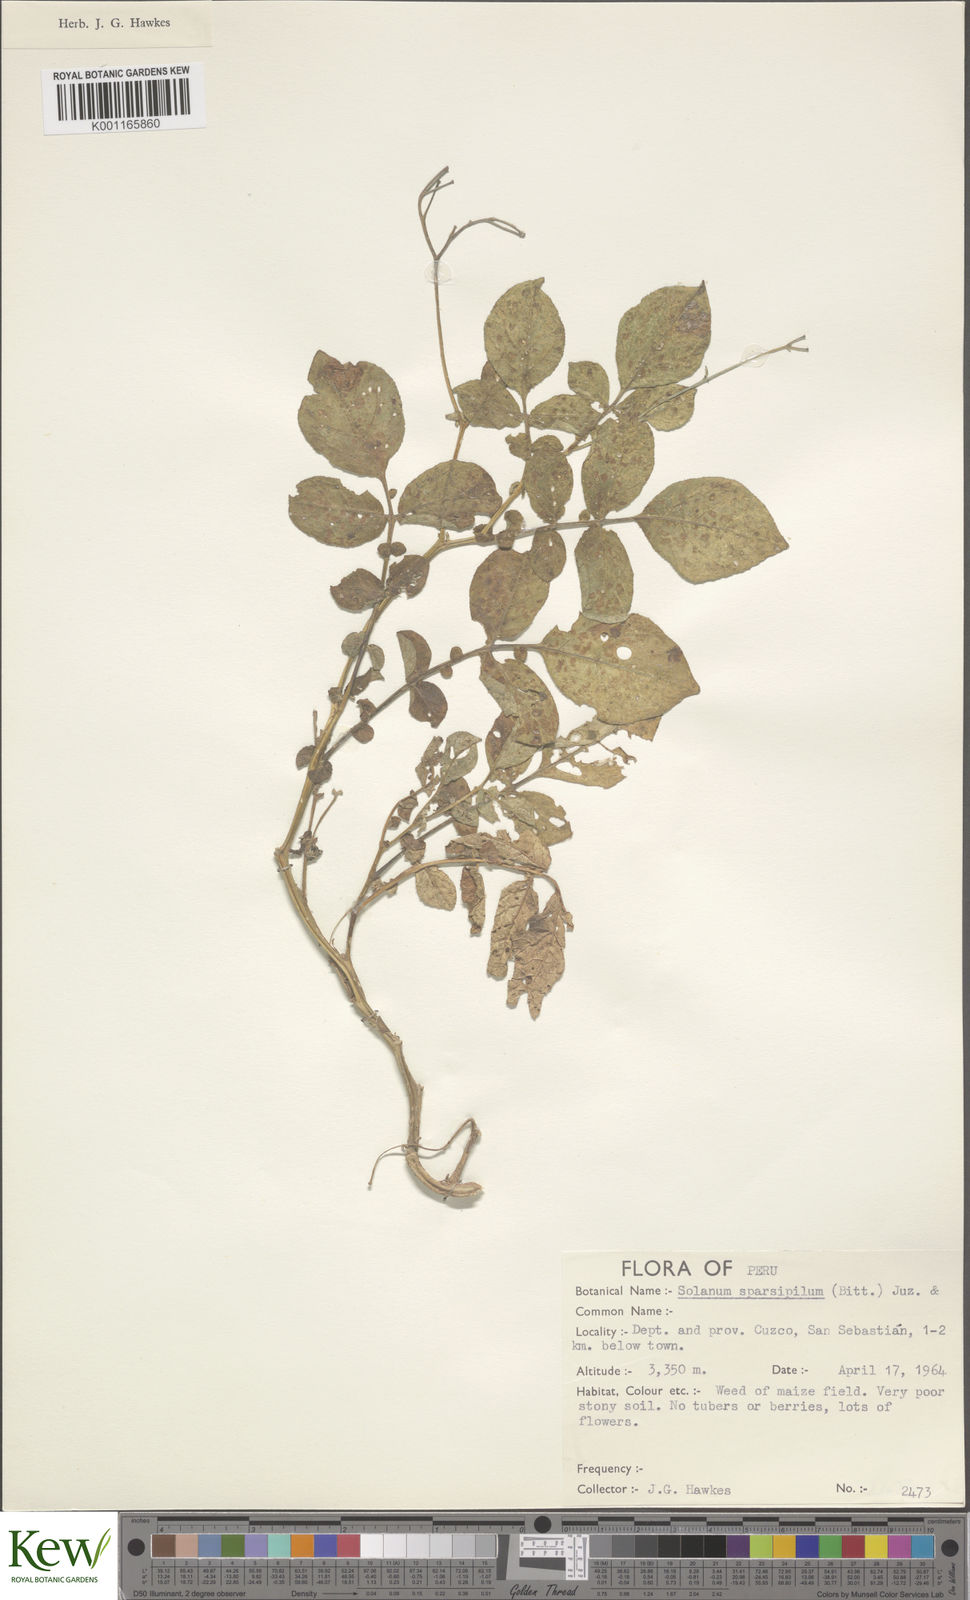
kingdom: Plantae
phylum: Tracheophyta
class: Magnoliopsida
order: Solanales
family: Solanaceae
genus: Solanum
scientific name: Solanum brevicaule
